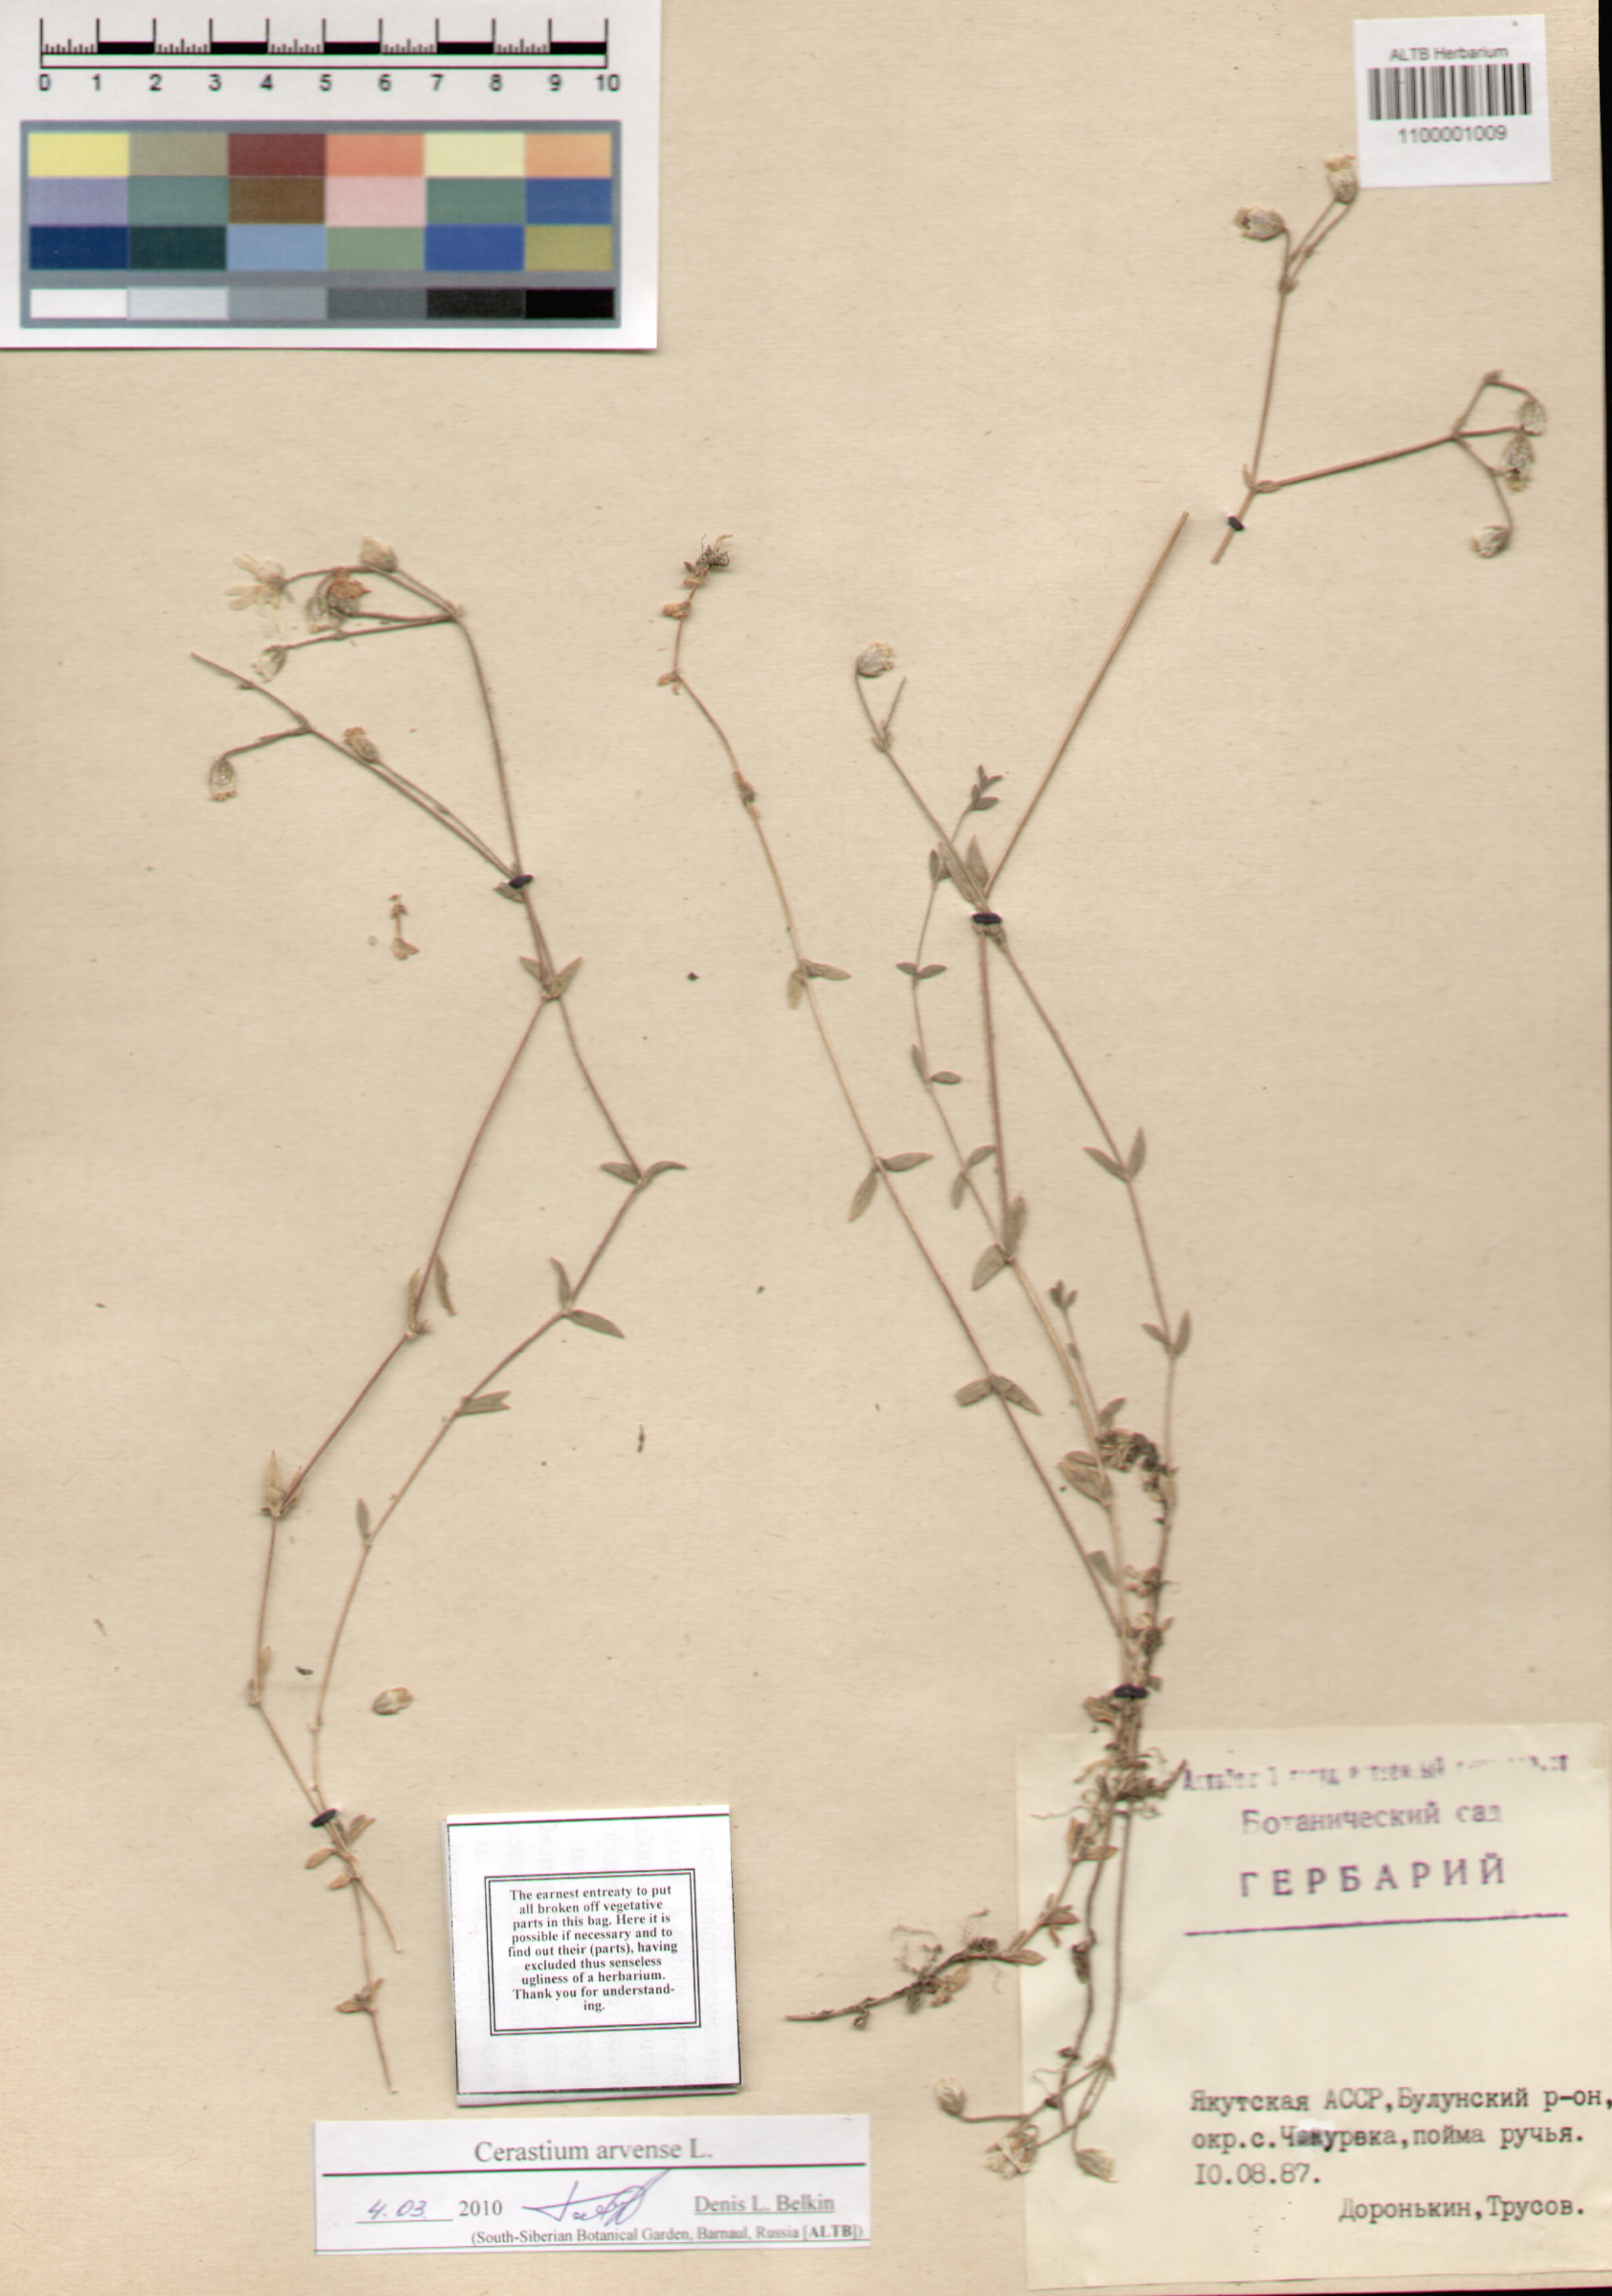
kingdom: Plantae
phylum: Tracheophyta
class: Magnoliopsida
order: Caryophyllales
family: Caryophyllaceae
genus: Cerastium
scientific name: Cerastium arvense
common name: Field mouse-ear
